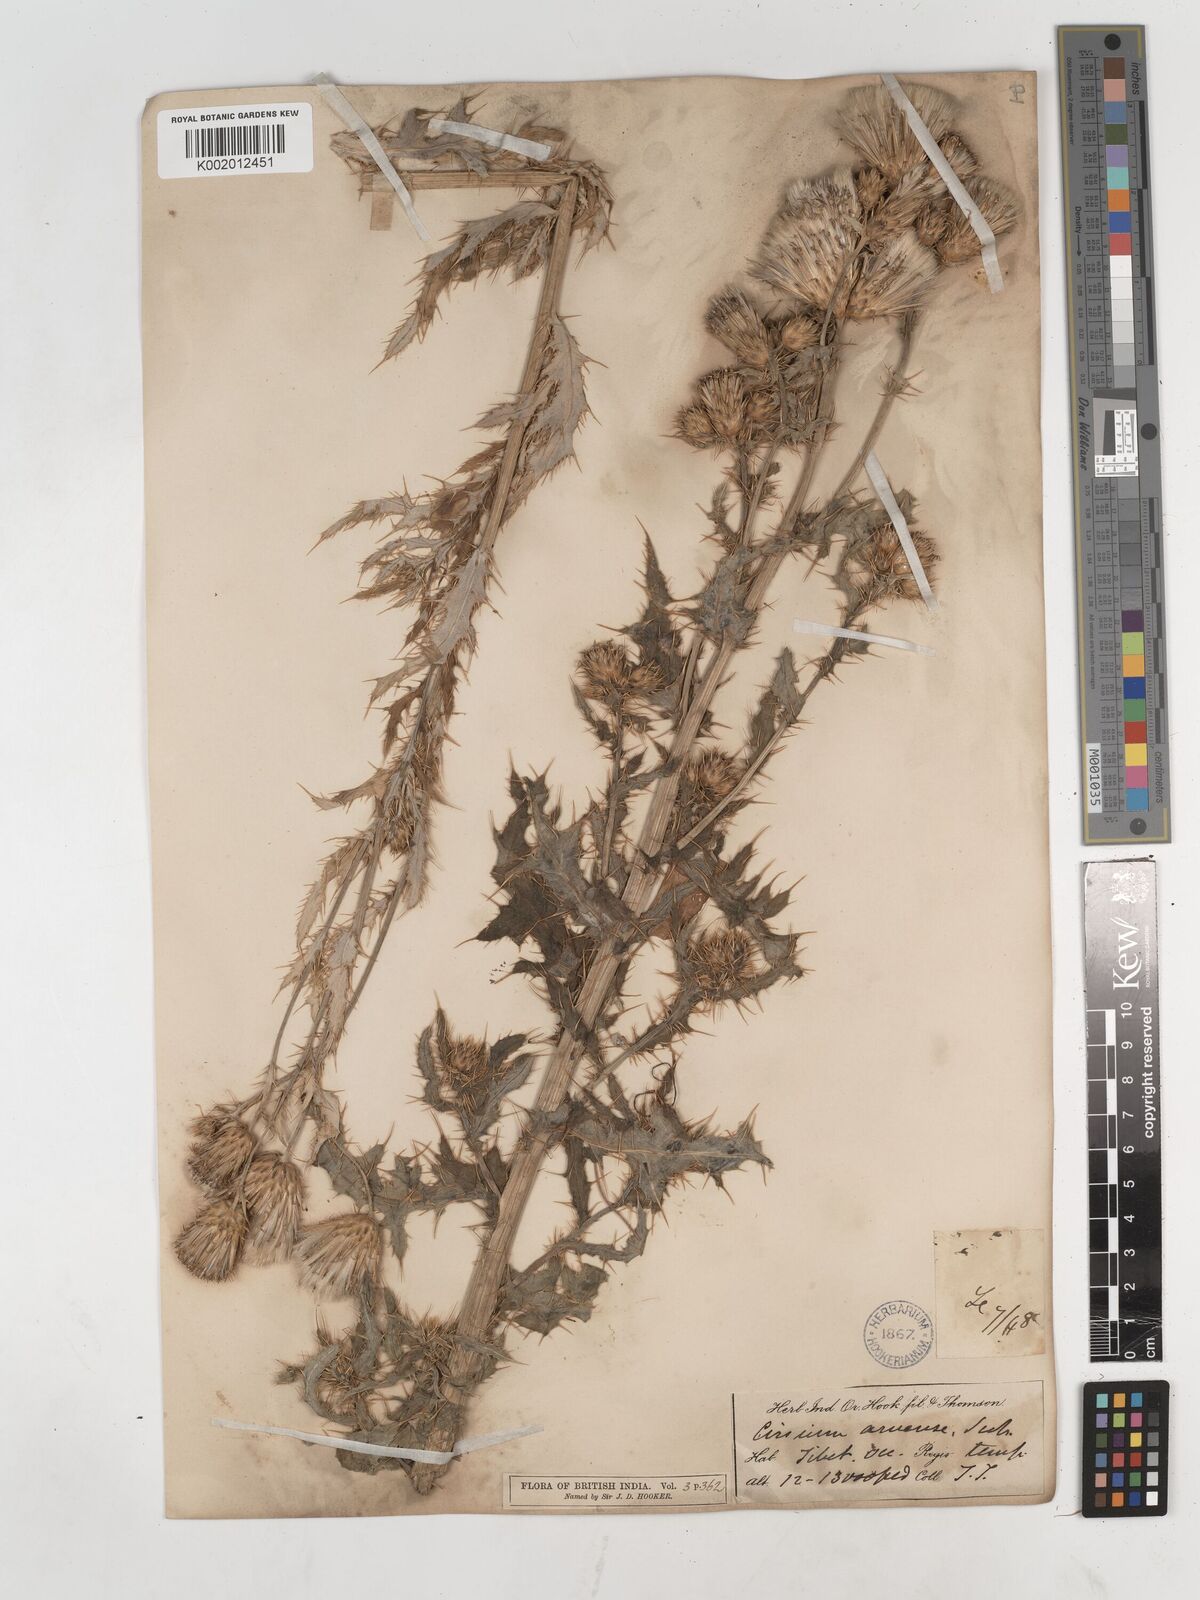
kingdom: Plantae
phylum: Tracheophyta
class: Magnoliopsida
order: Asterales
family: Asteraceae
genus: Cirsium
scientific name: Cirsium arvense
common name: Creeping thistle
